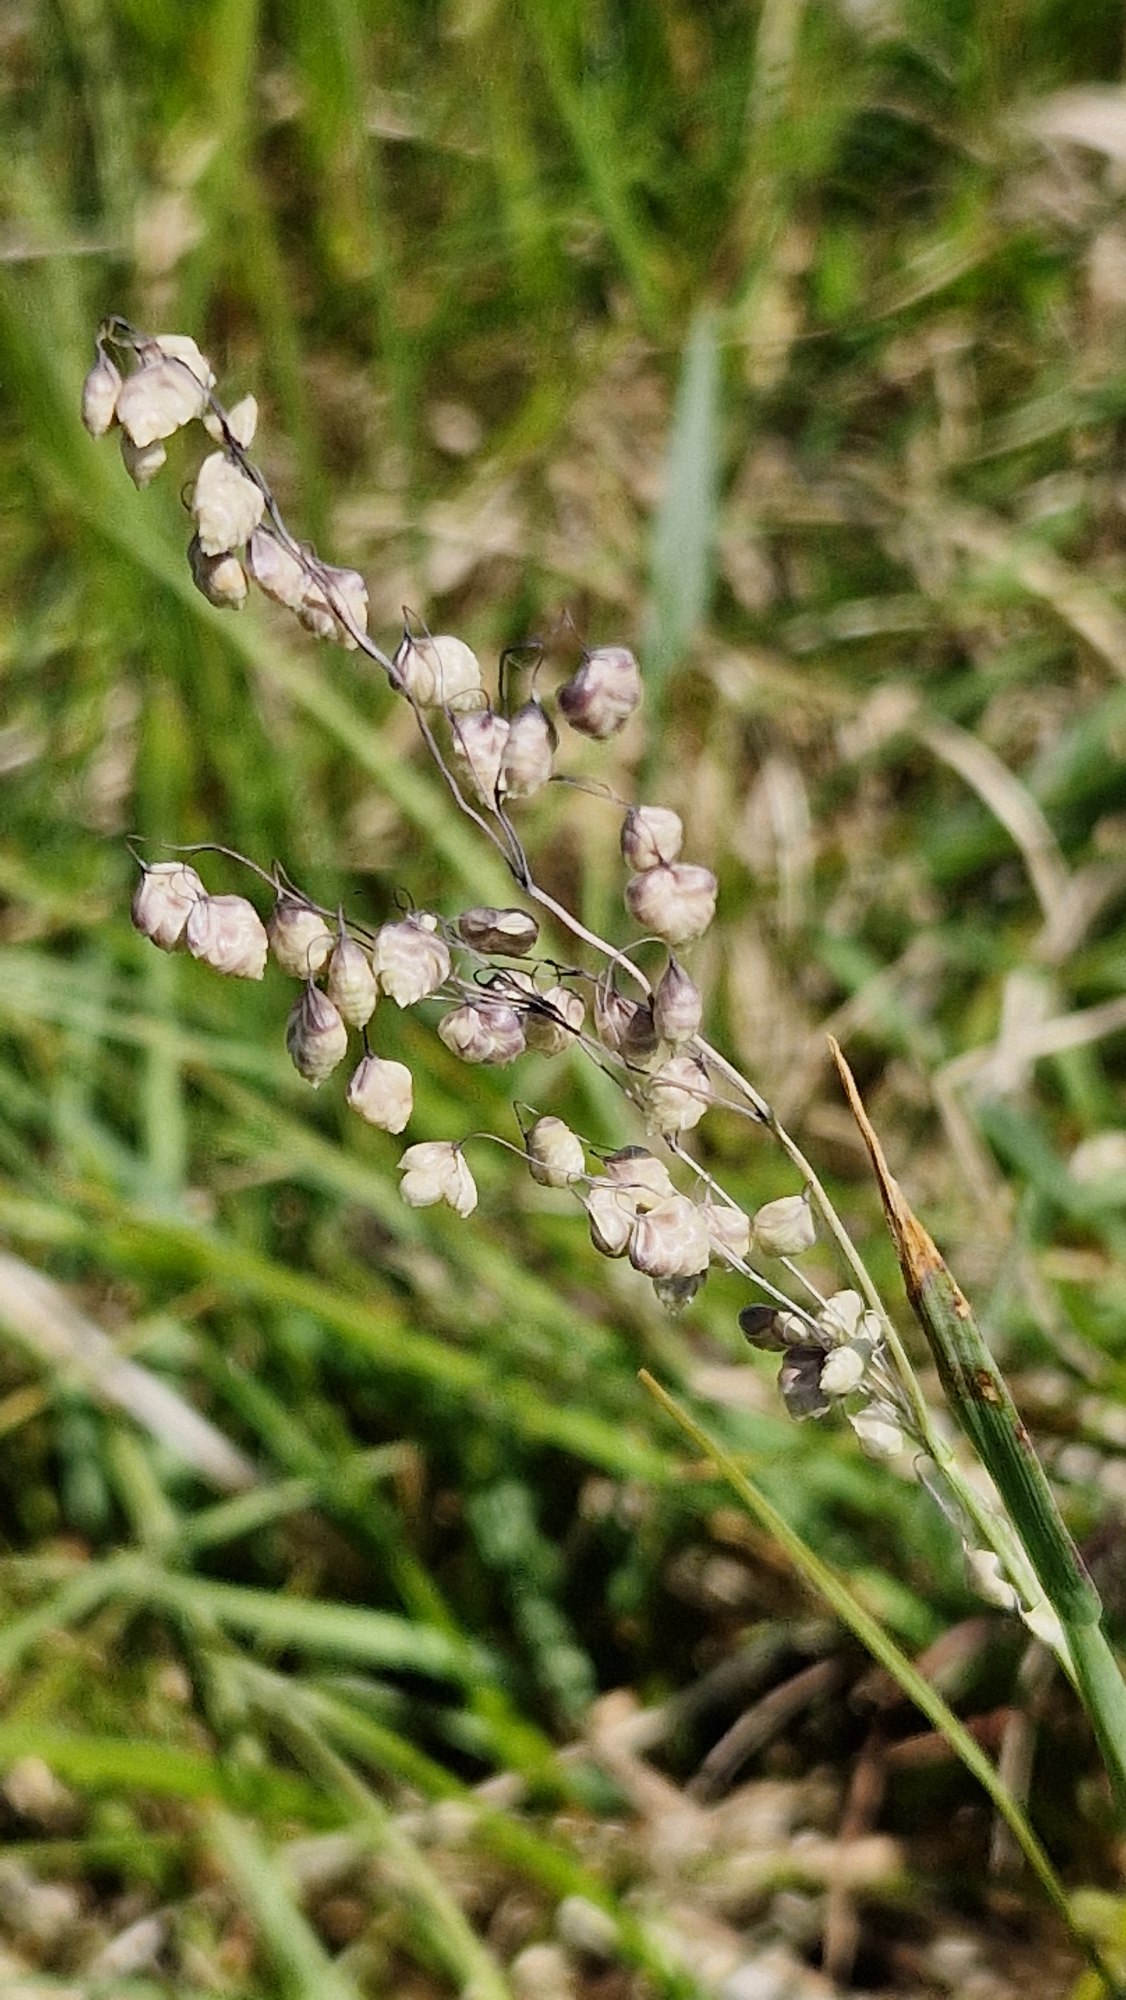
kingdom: Plantae
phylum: Tracheophyta
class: Liliopsida
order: Poales
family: Poaceae
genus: Briza
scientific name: Briza media
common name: Hjertegræs
